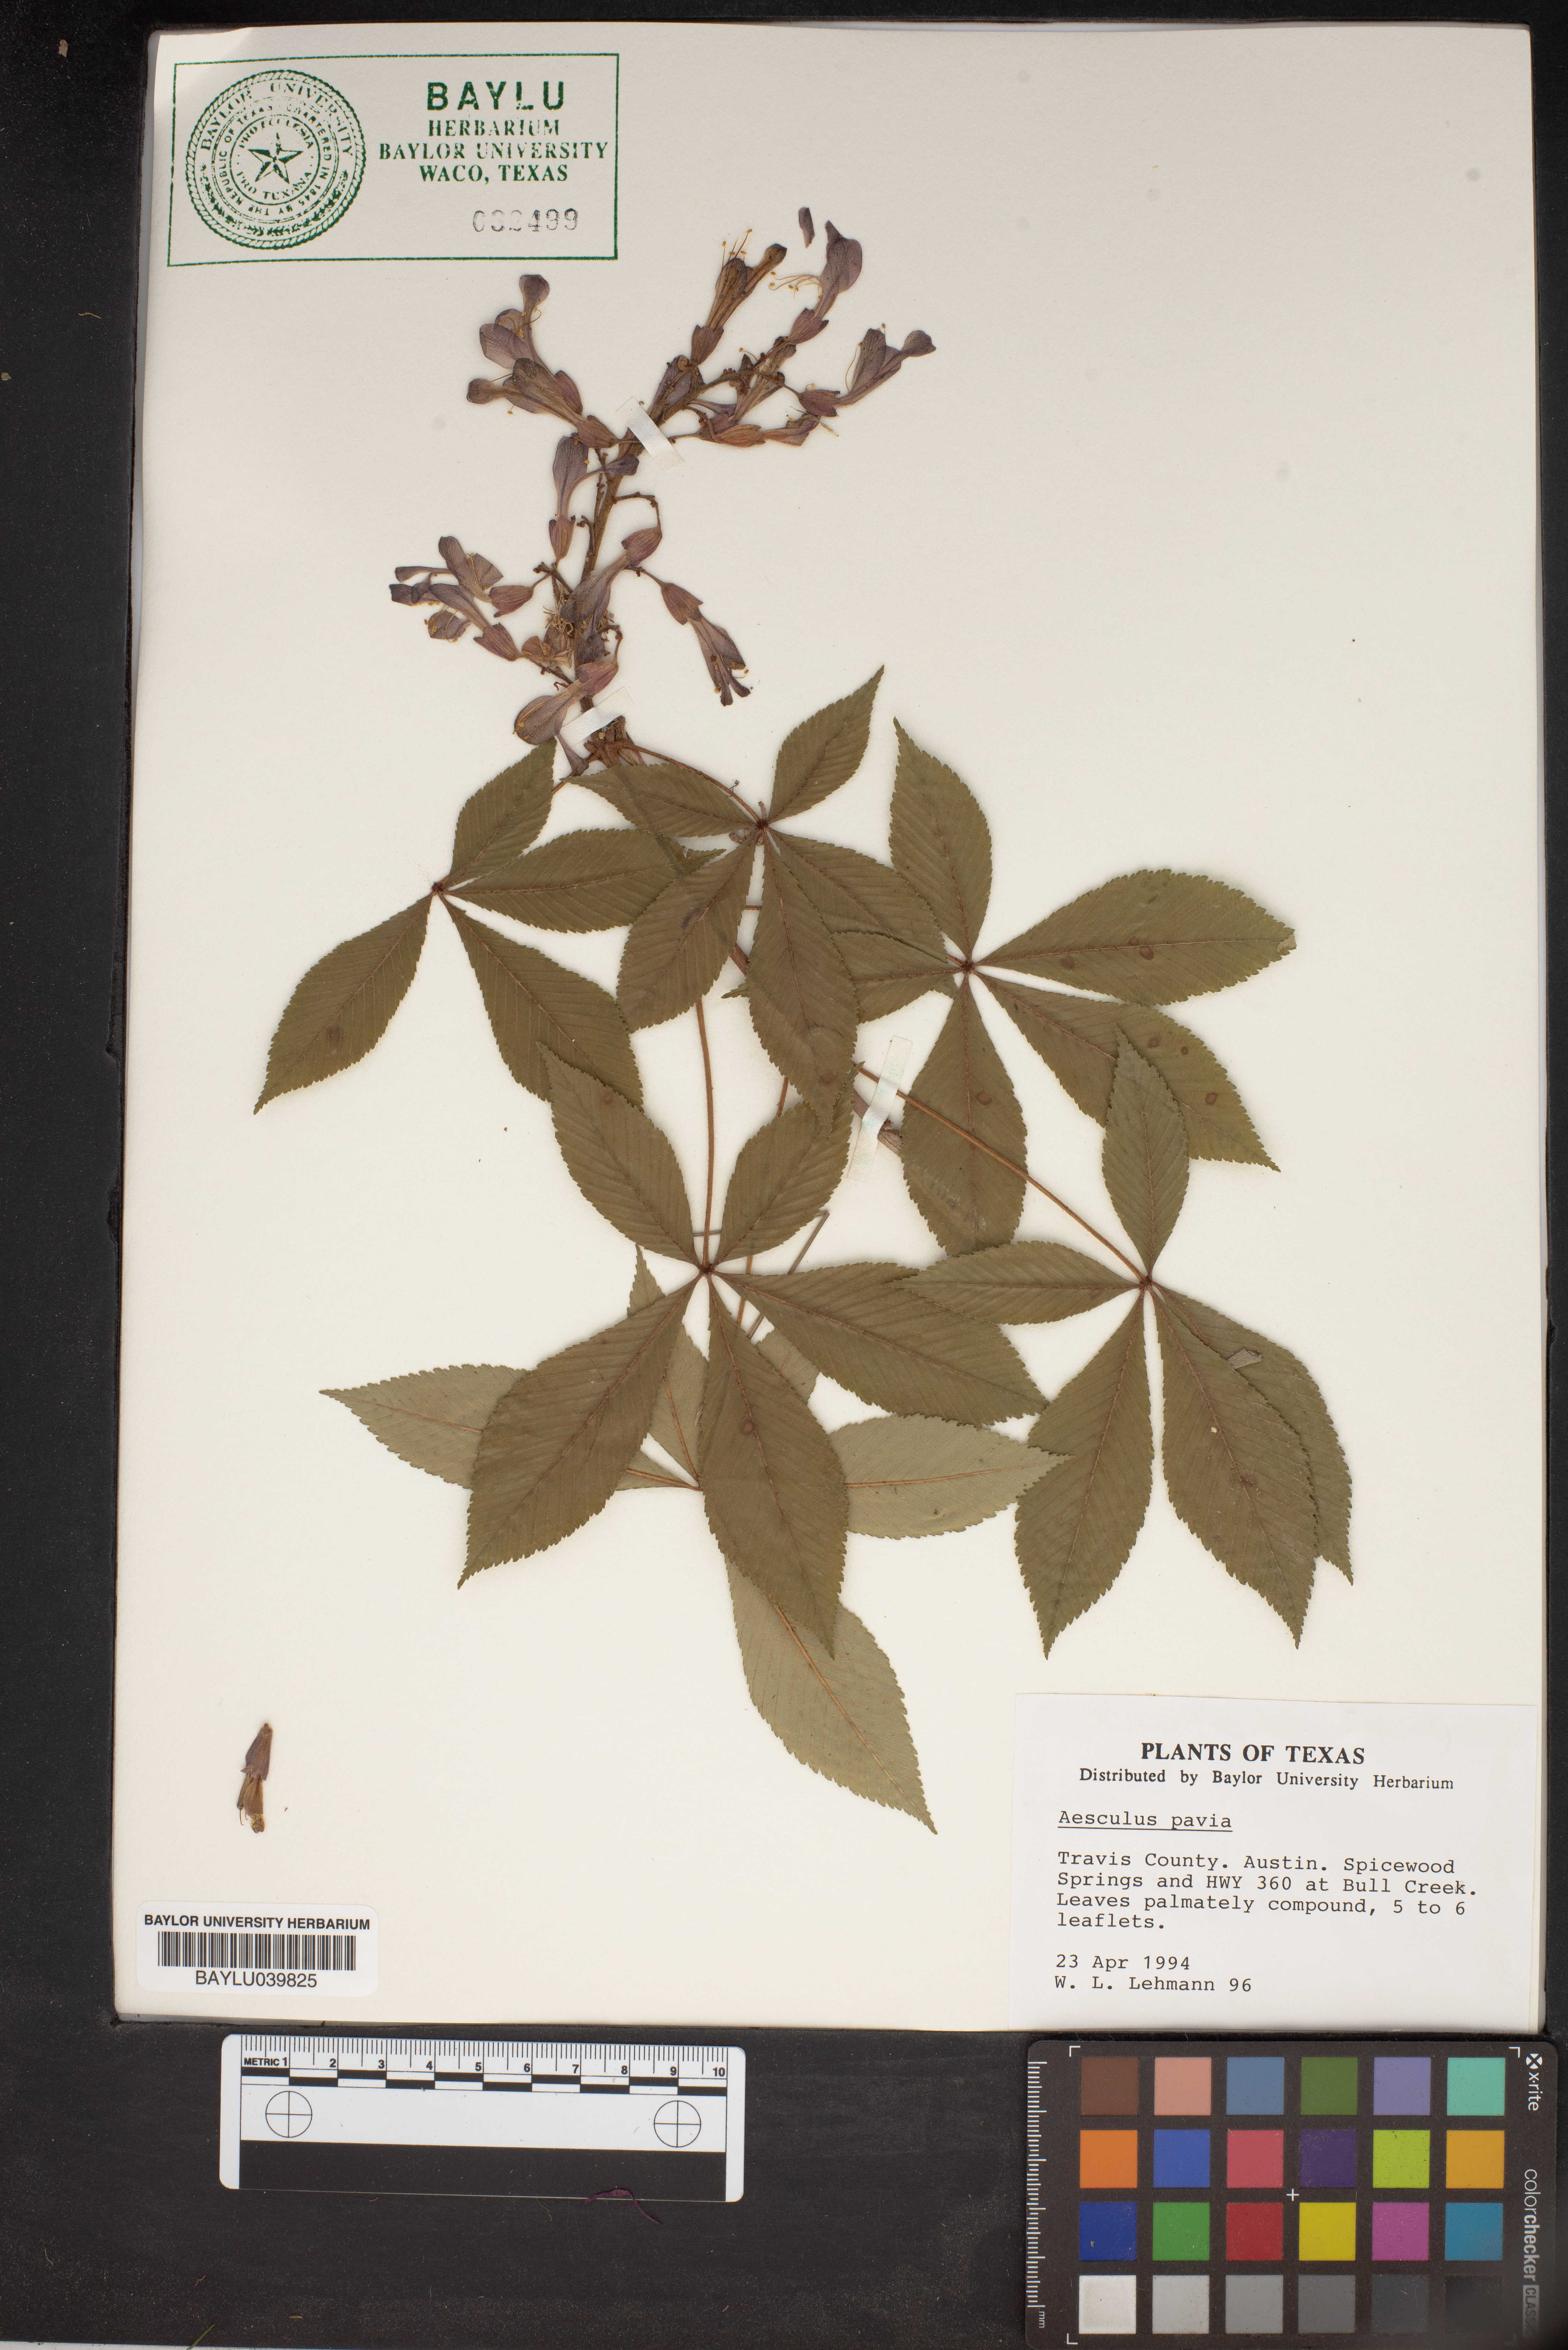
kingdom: Plantae
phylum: Tracheophyta
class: Magnoliopsida
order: Sapindales
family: Sapindaceae
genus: Aesculus
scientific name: Aesculus pavia
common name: Red buckeye
